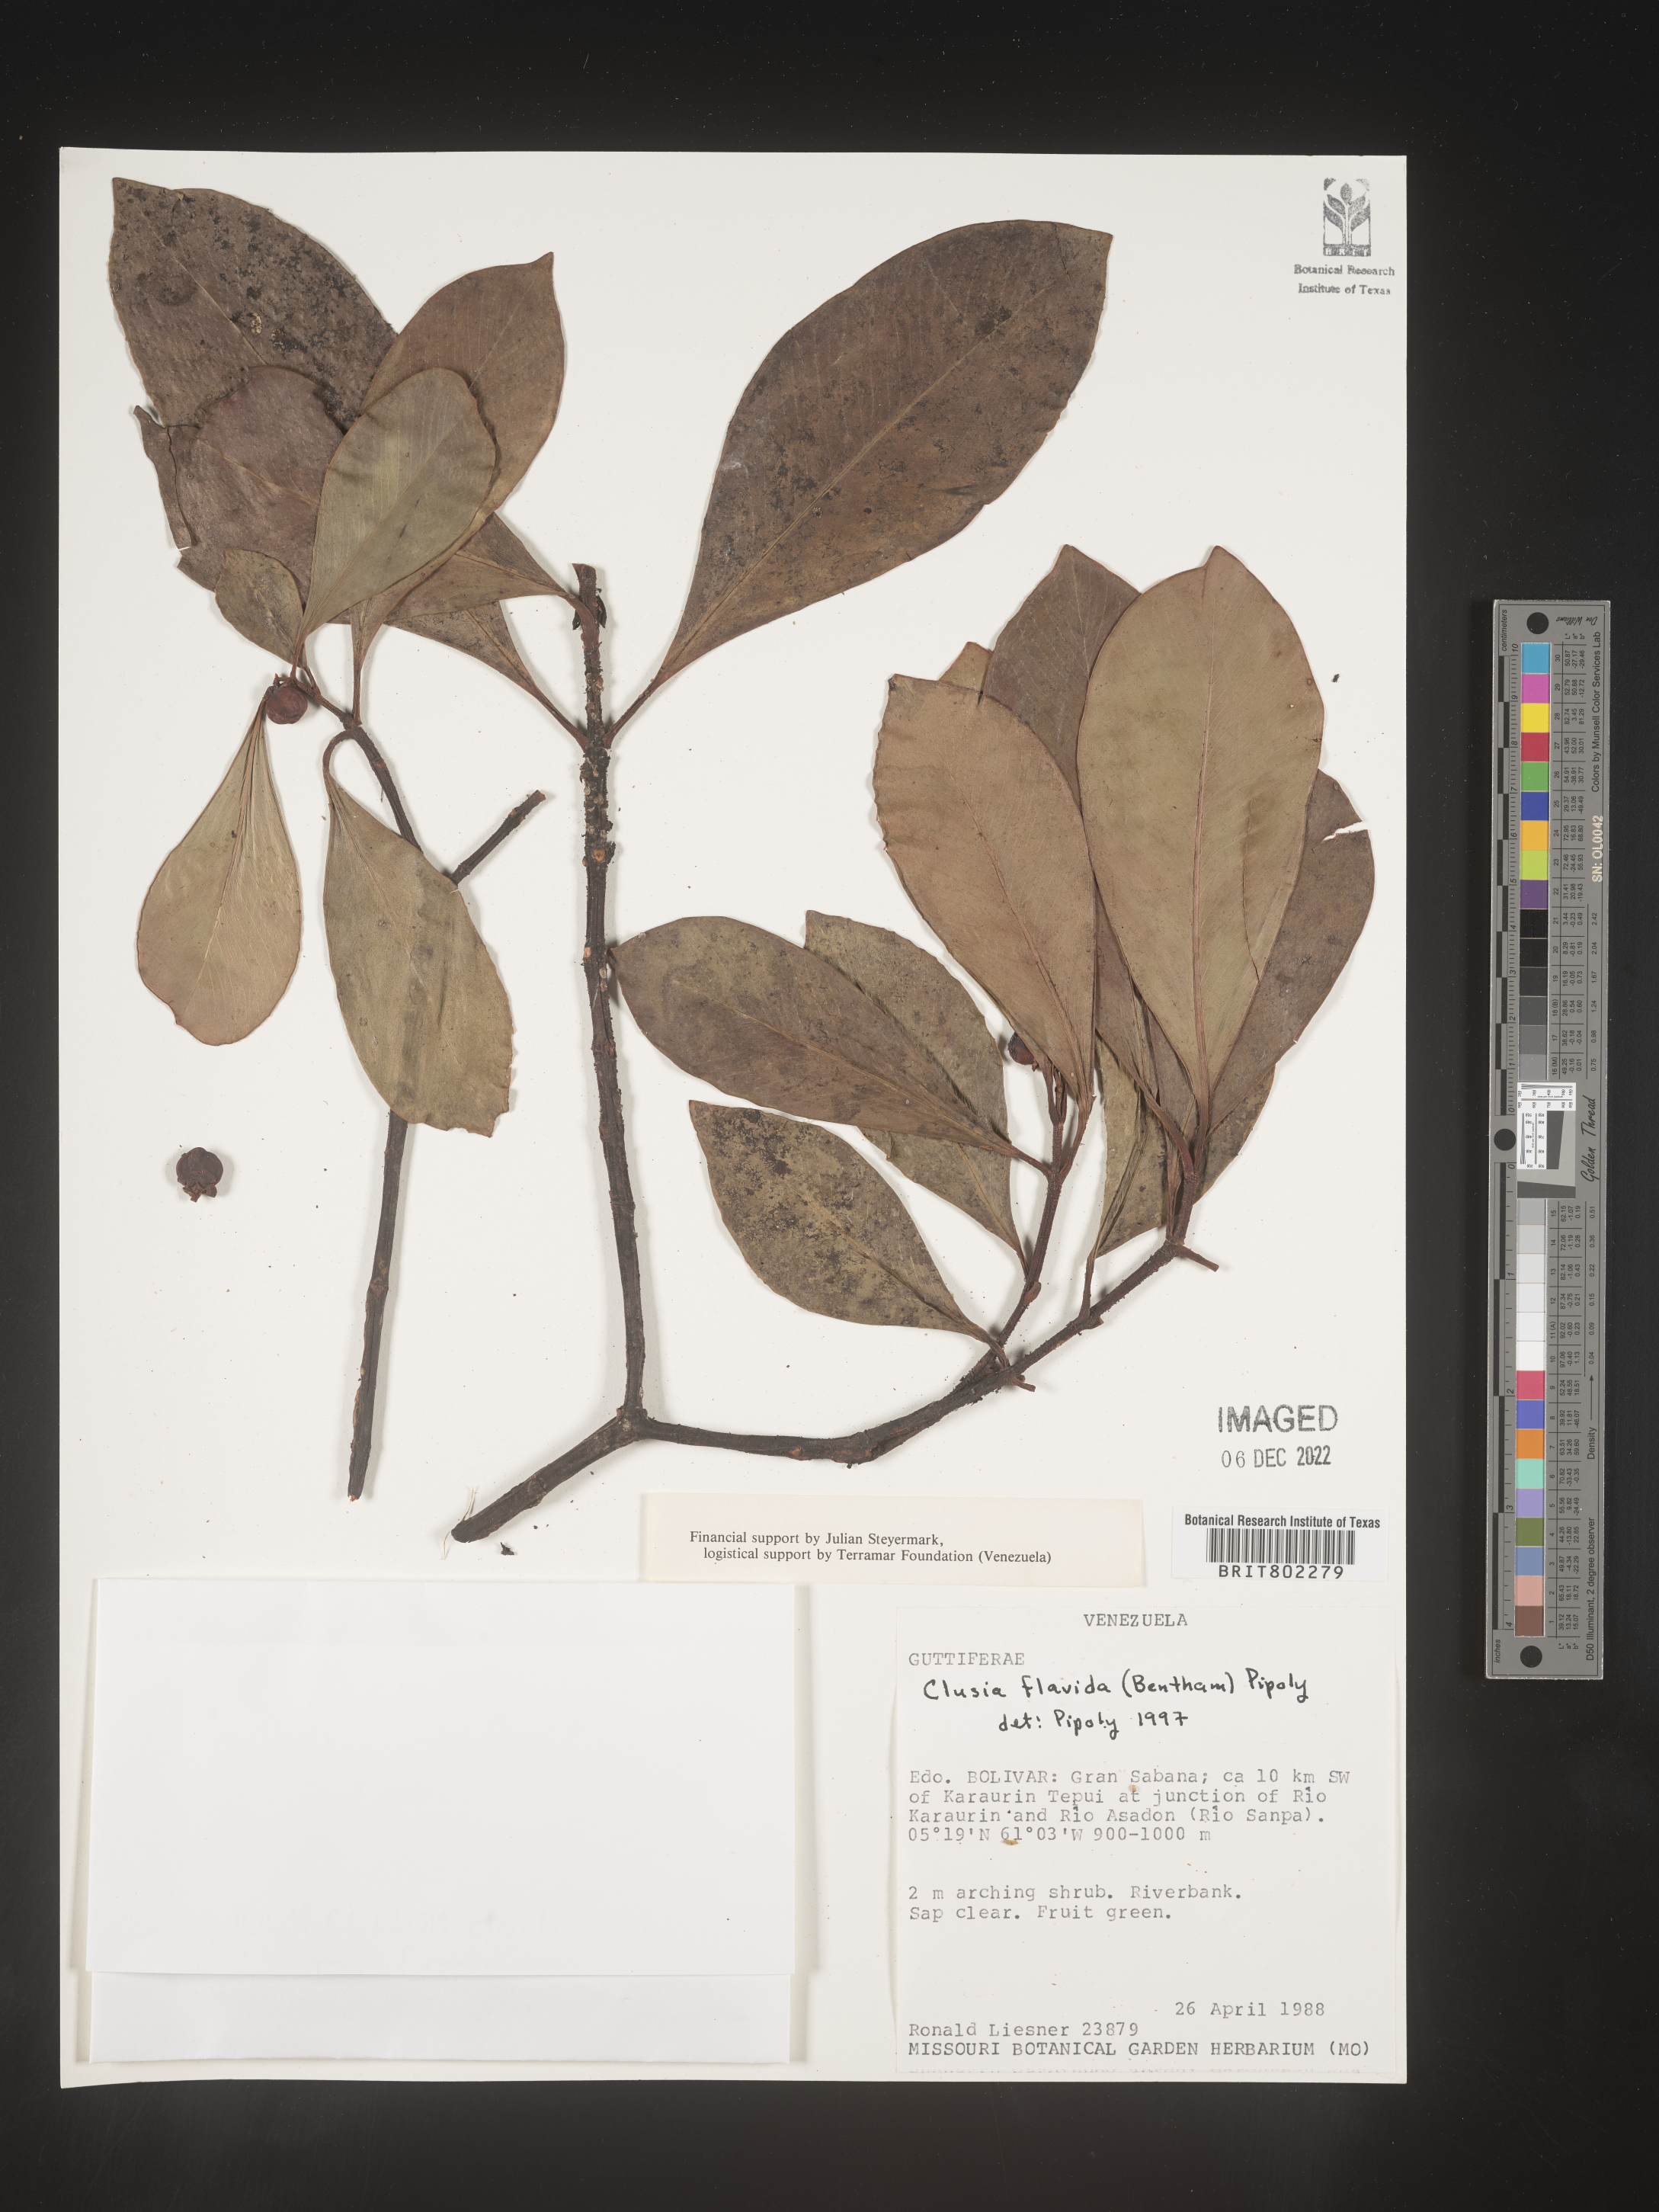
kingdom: Plantae
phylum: Tracheophyta
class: Magnoliopsida
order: Malpighiales
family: Clusiaceae
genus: Clusia
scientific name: Clusia flavida
